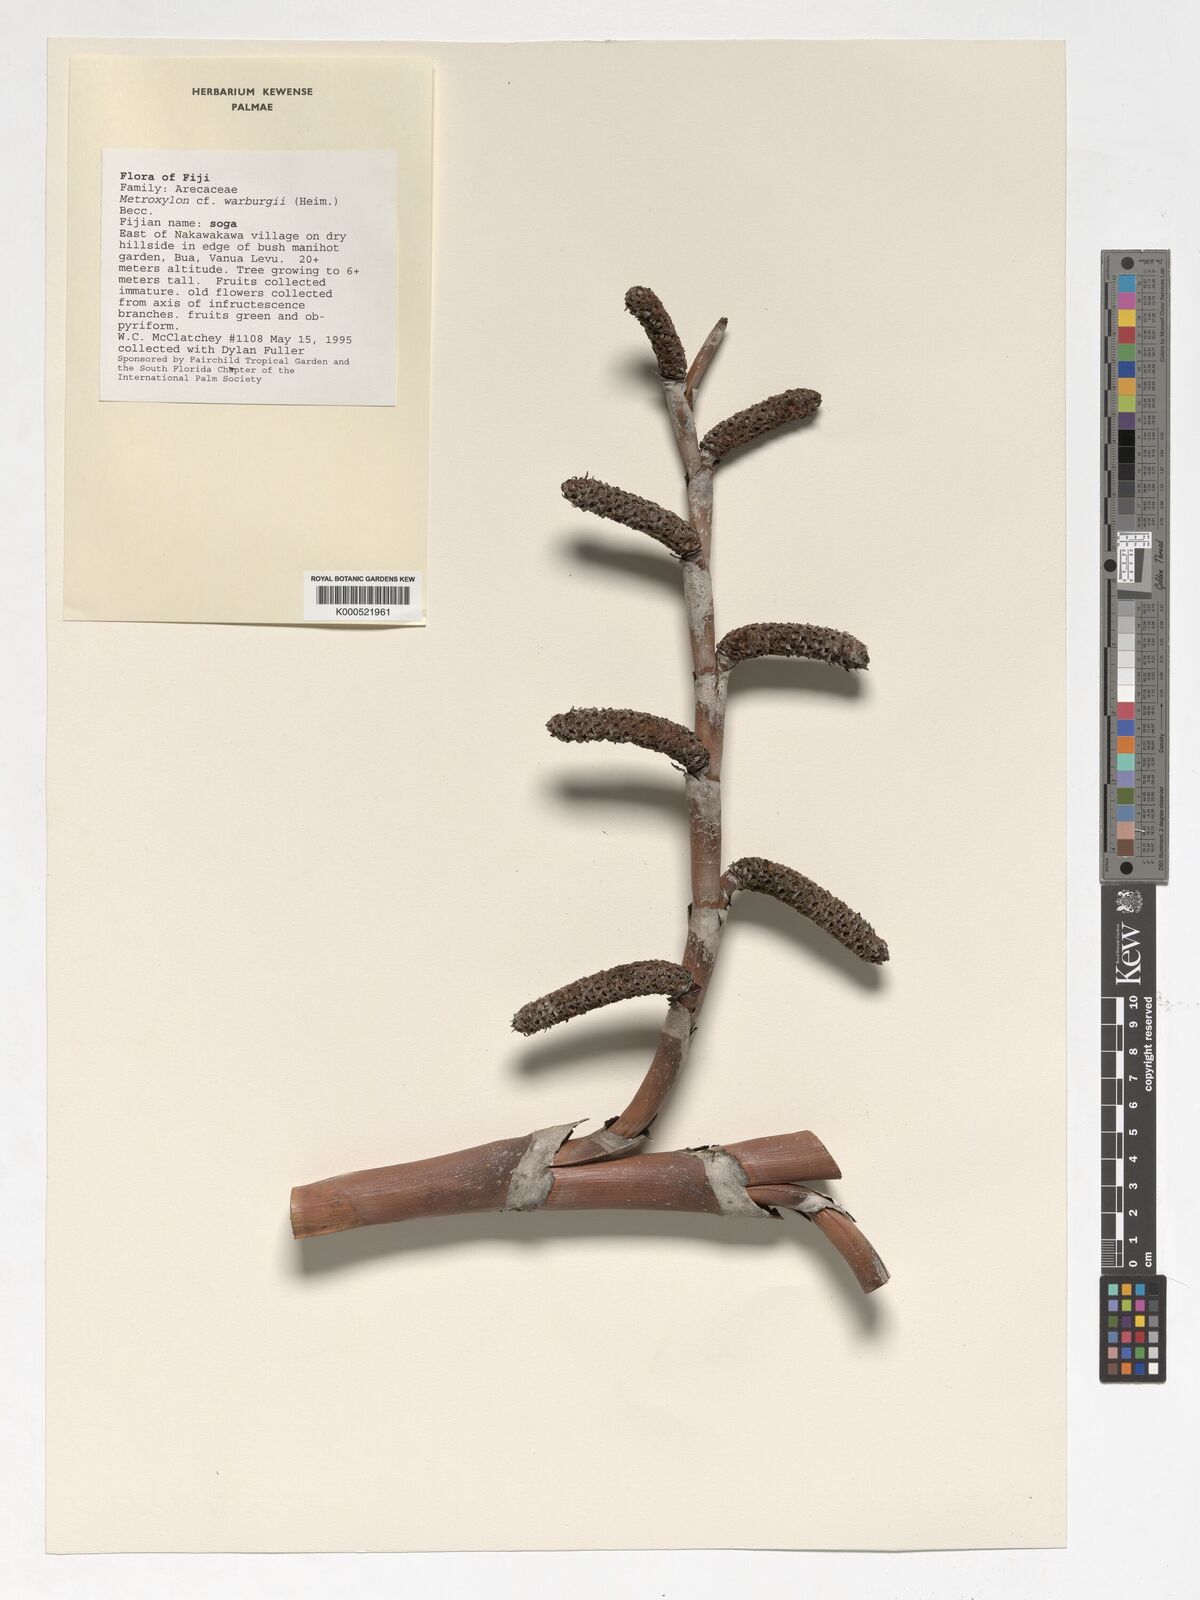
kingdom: Plantae
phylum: Tracheophyta
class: Liliopsida
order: Arecales
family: Arecaceae
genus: Metroxylon
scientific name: Metroxylon warburgii
